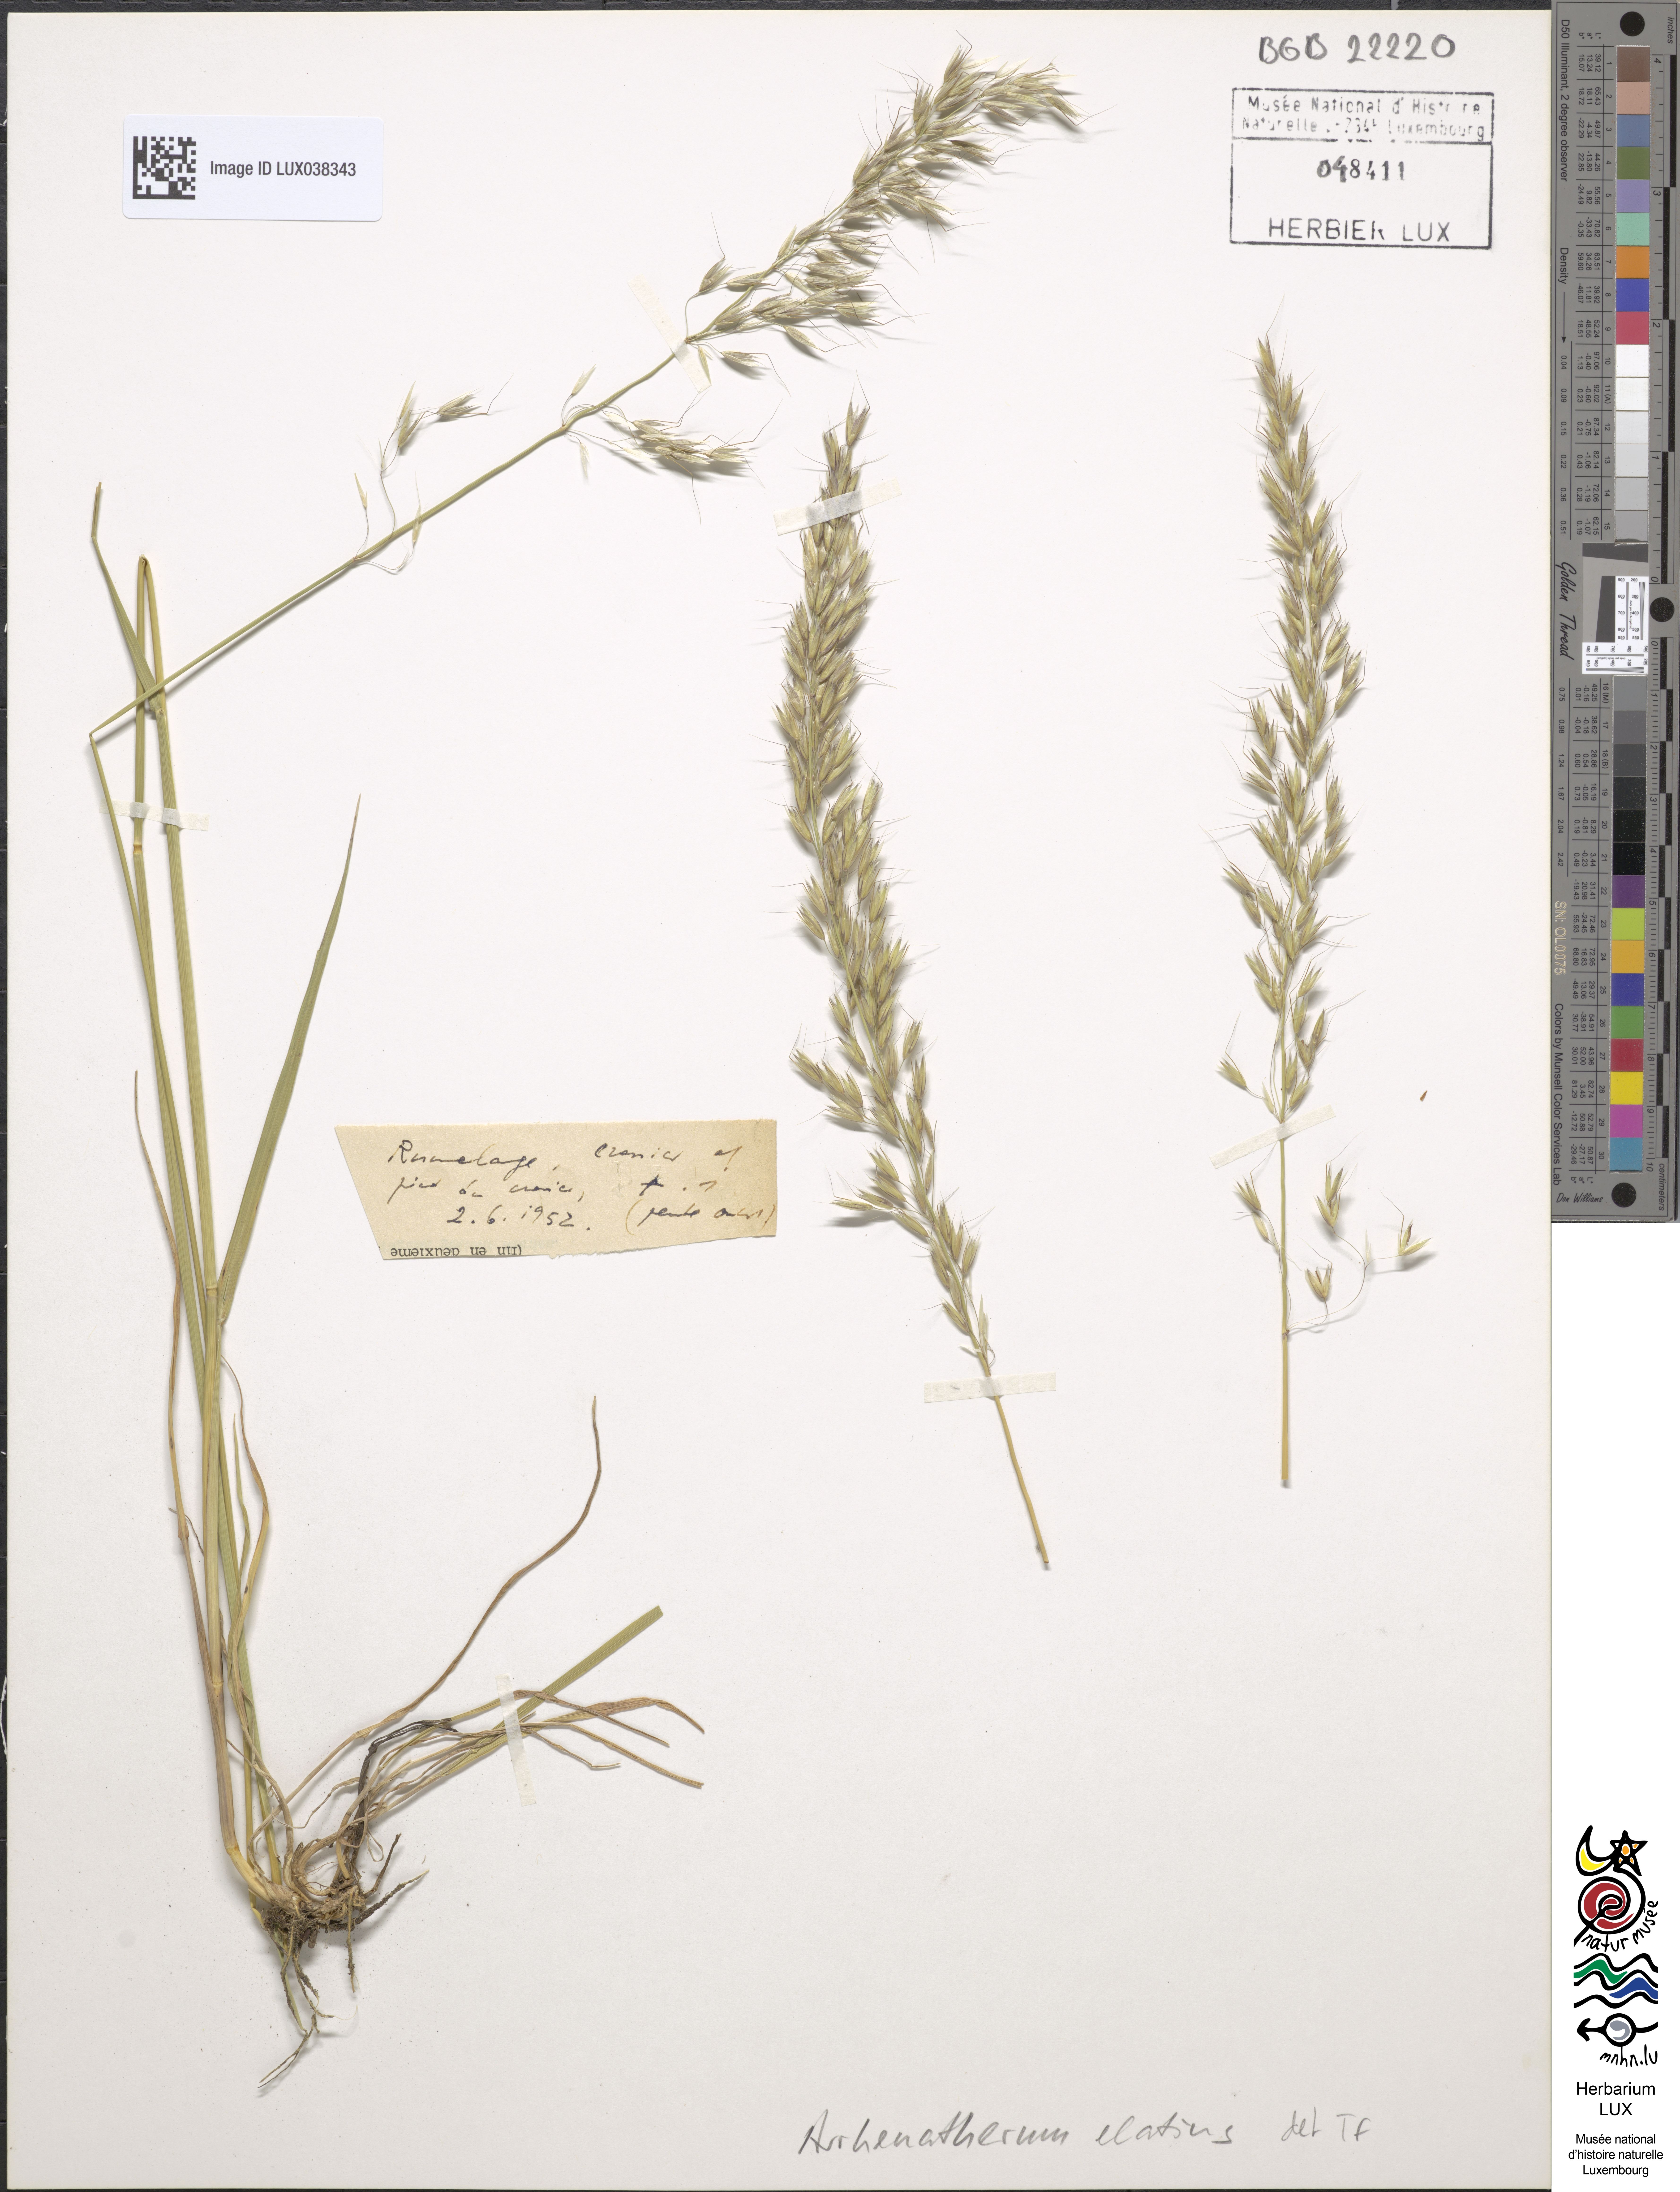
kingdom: Plantae
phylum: Tracheophyta
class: Liliopsida
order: Poales
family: Poaceae
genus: Arrhenatherum
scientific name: Arrhenatherum elatius
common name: Tall oatgrass
